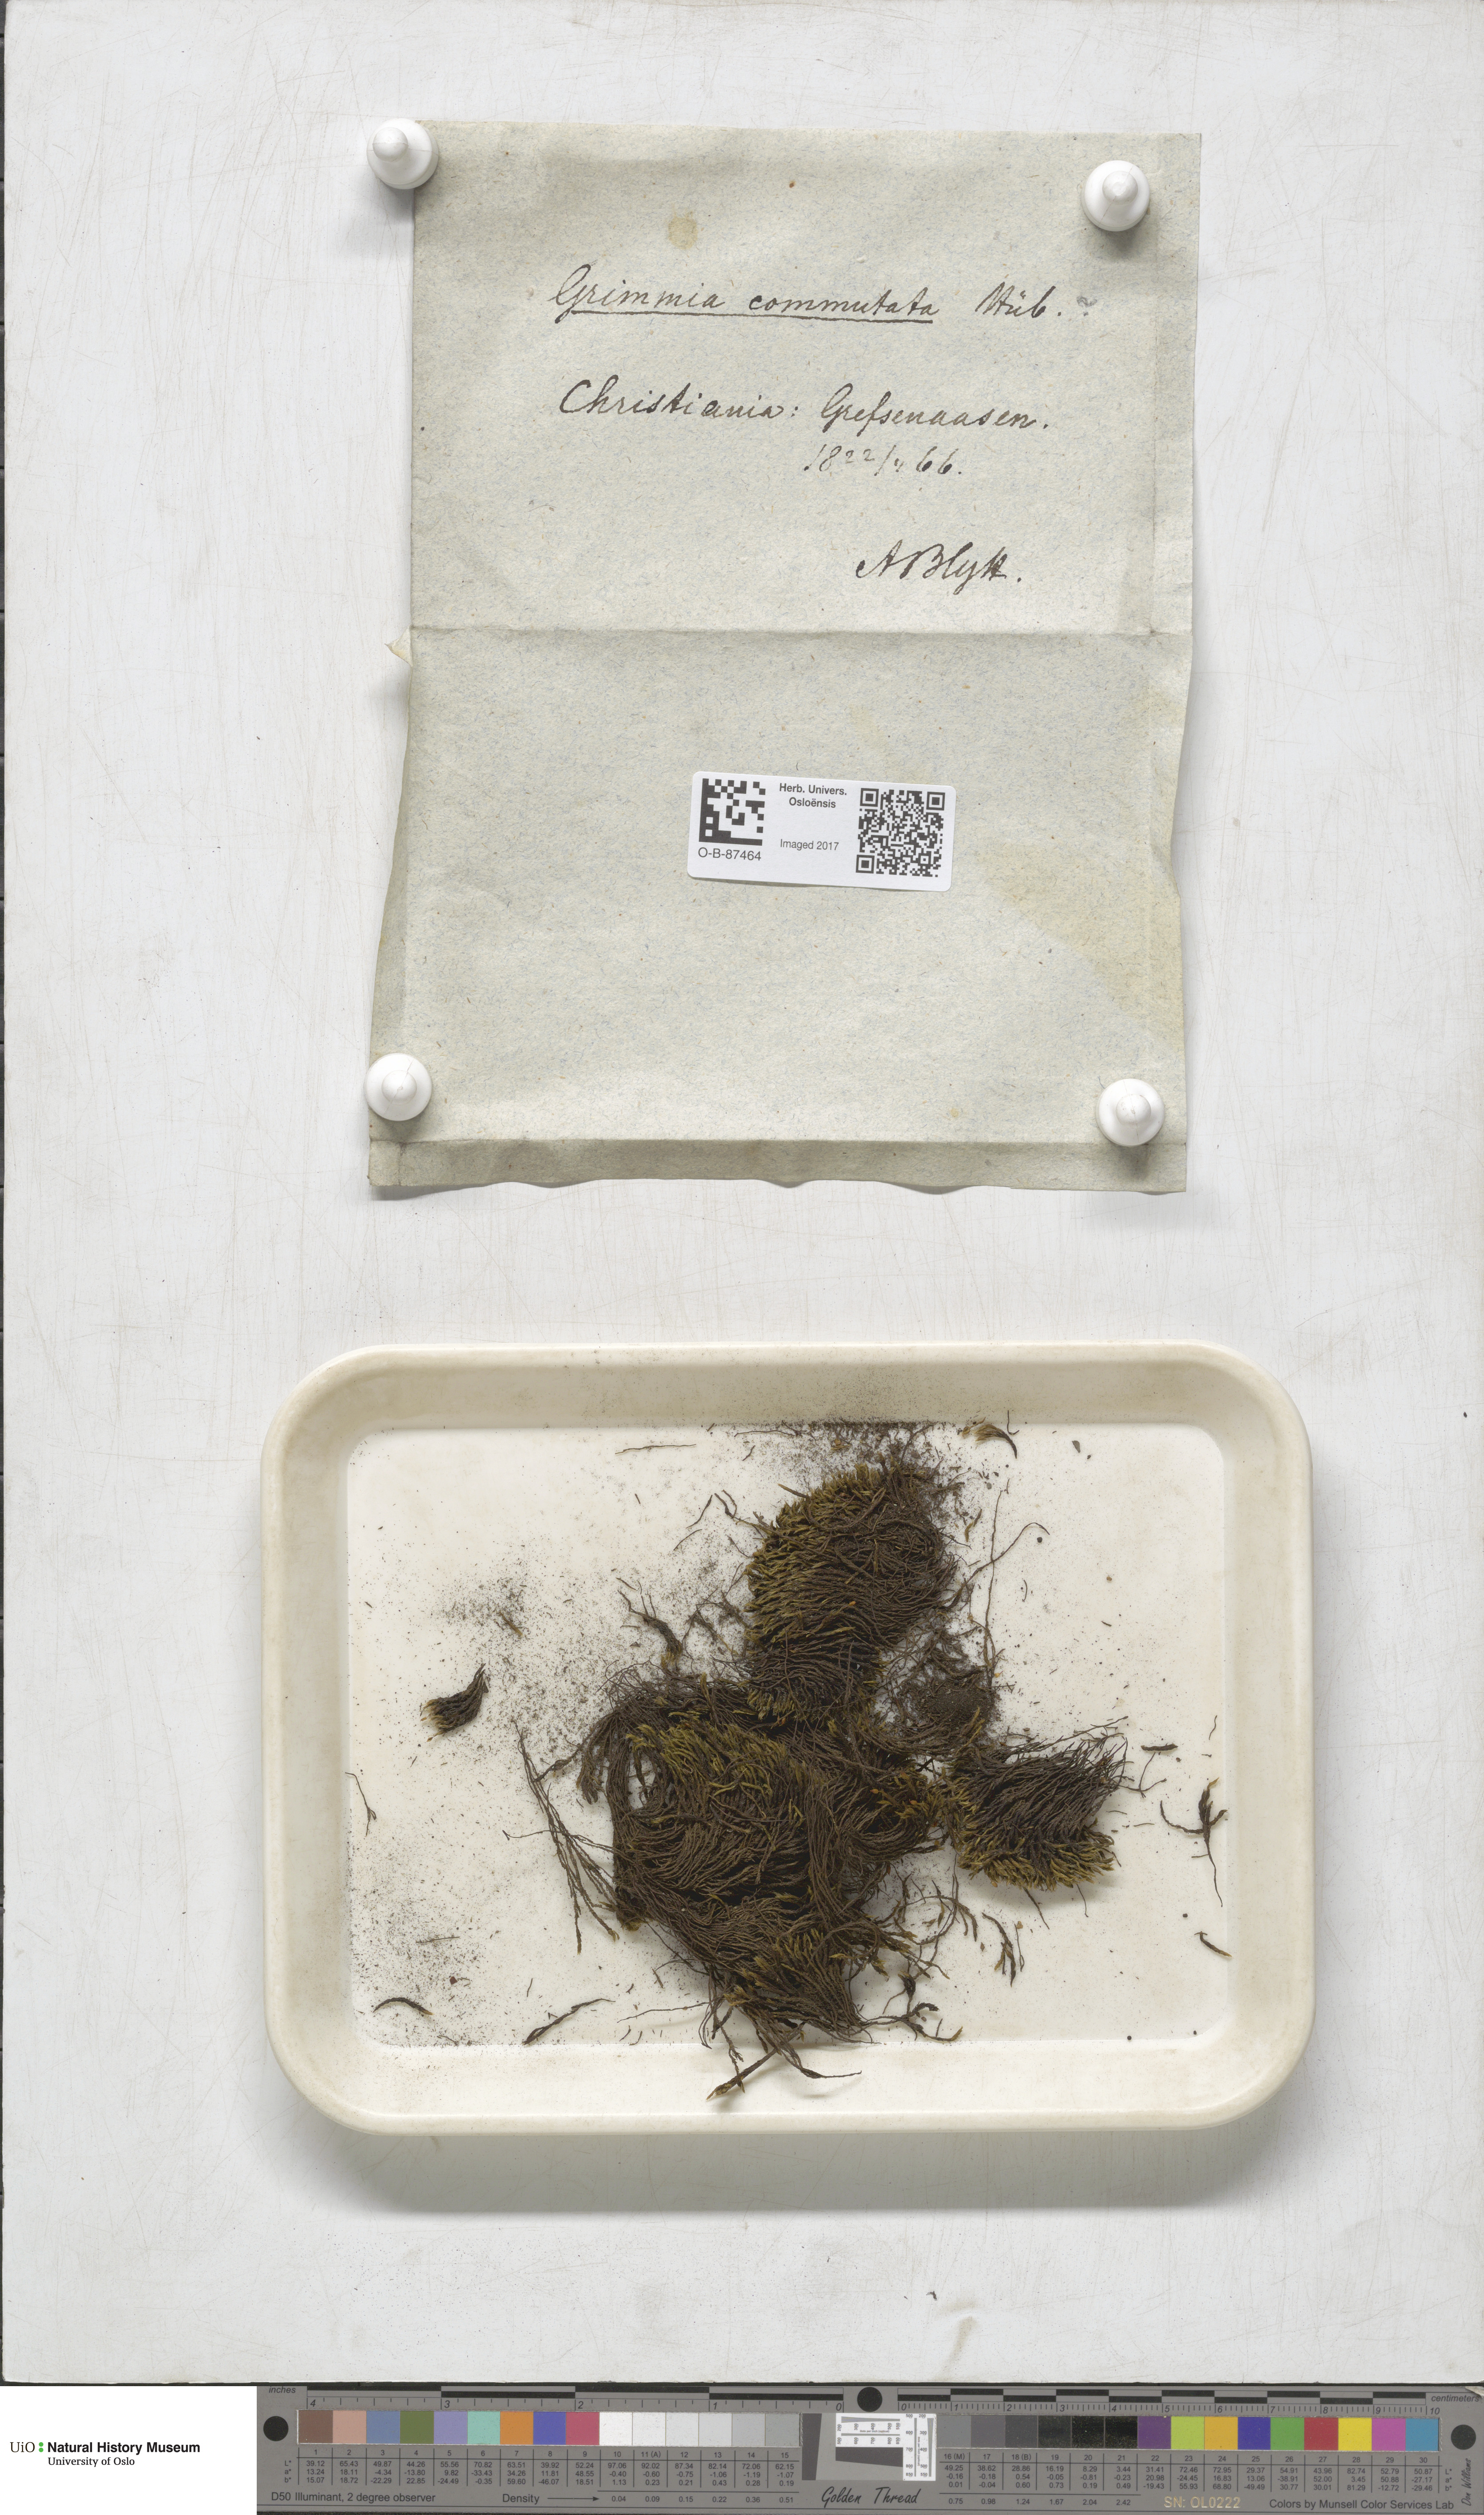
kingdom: Plantae
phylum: Bryophyta
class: Bryopsida
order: Grimmiales
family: Grimmiaceae
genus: Grimmia
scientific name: Grimmia ovalis
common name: Oval grimmia
